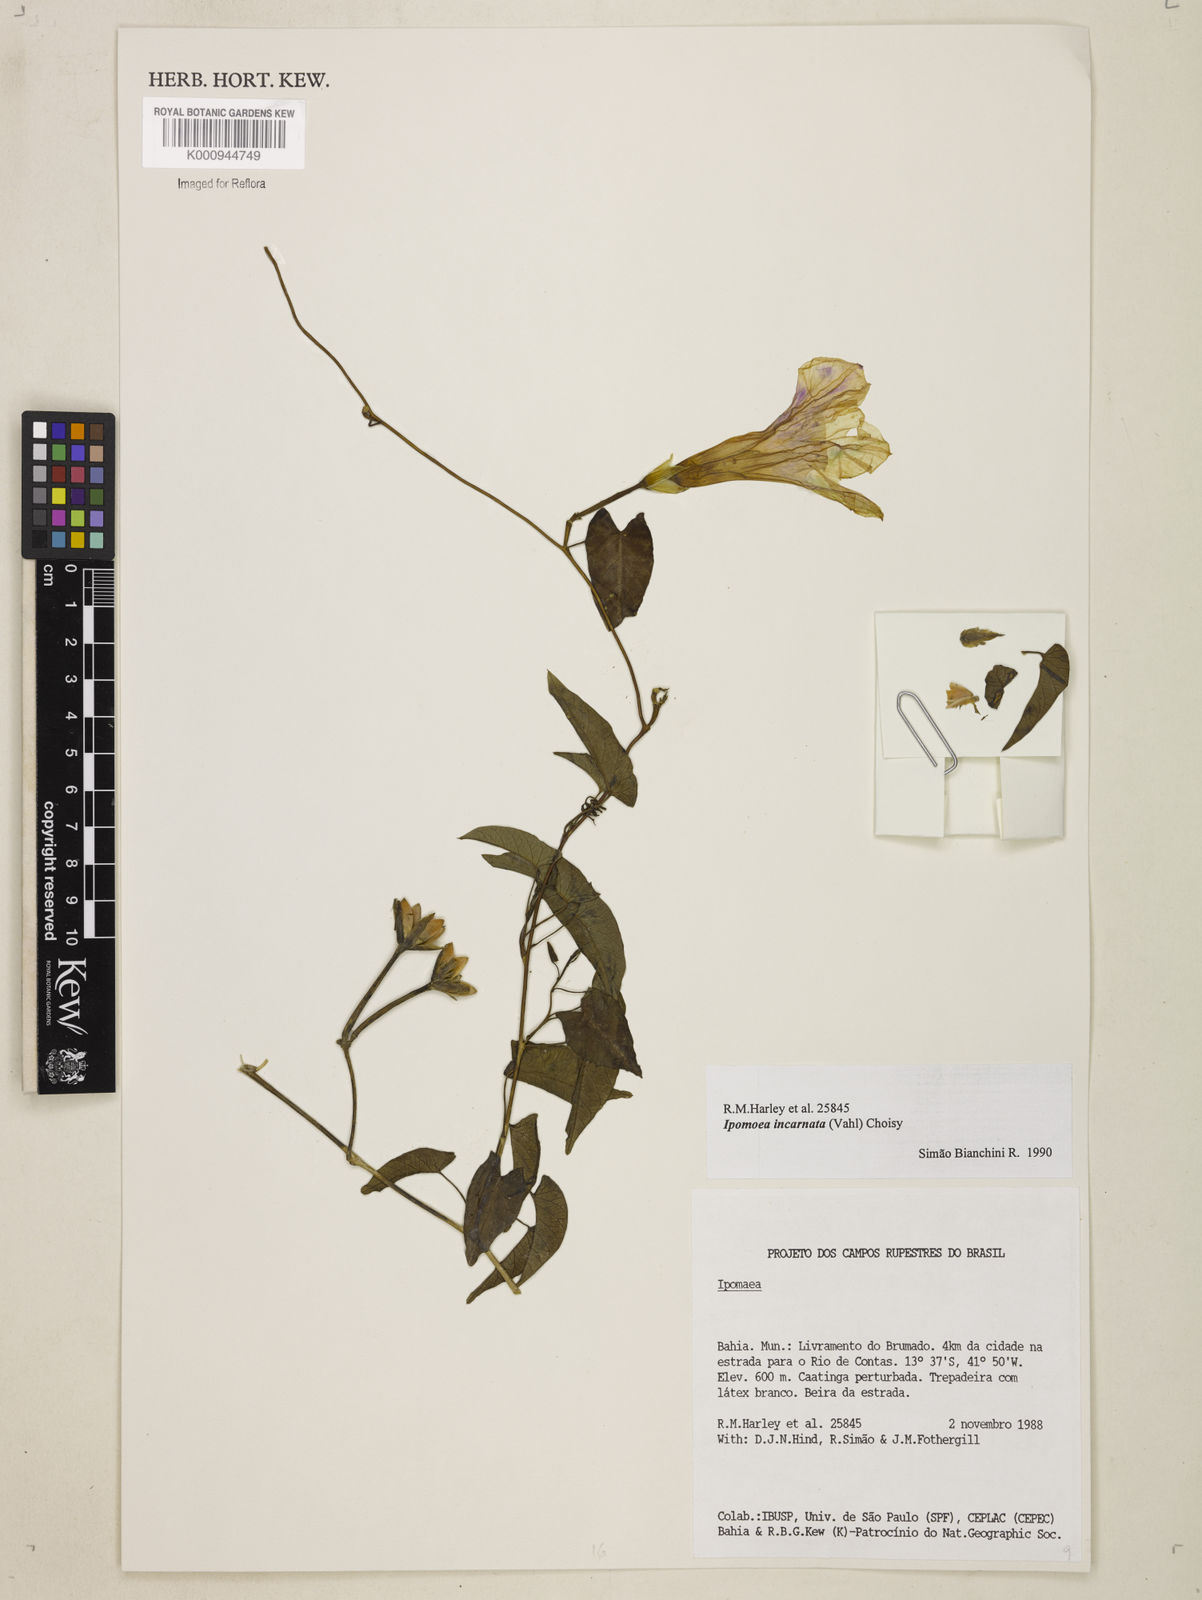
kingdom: Plantae
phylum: Tracheophyta
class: Magnoliopsida
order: Solanales
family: Convolvulaceae
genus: Ipomoea
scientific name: Ipomoea incarnata
